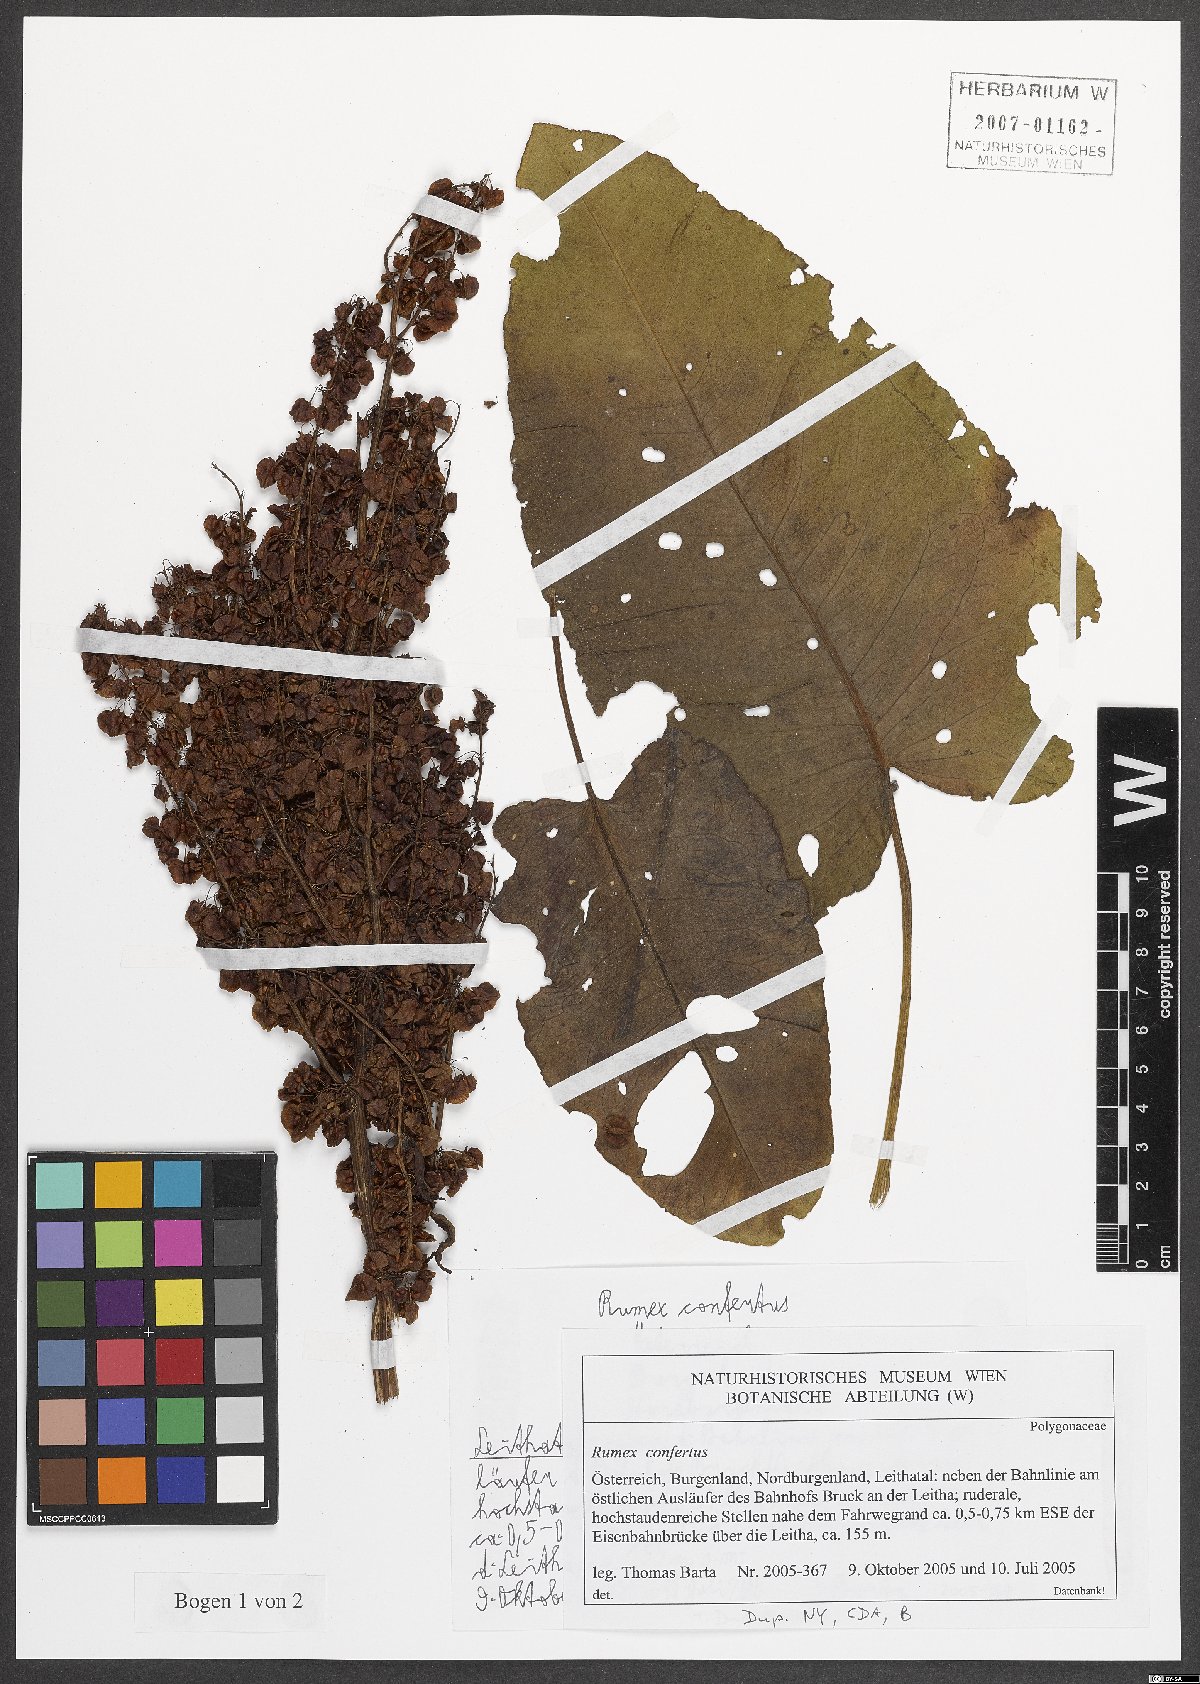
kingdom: Plantae
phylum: Tracheophyta
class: Magnoliopsida
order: Caryophyllales
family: Polygonaceae
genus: Rumex
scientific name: Rumex confertus
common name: Russian dock
